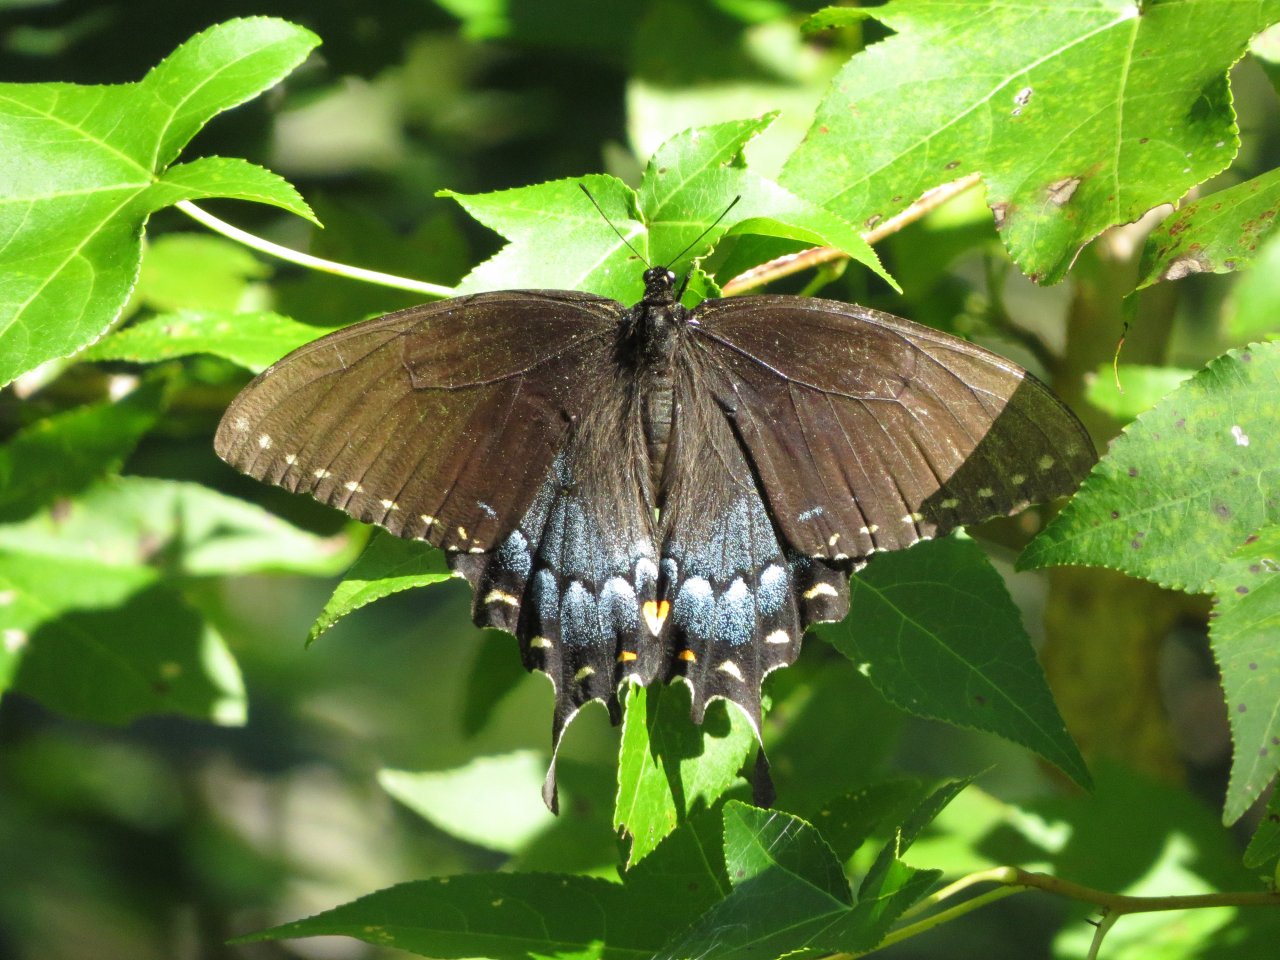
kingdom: Animalia
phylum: Arthropoda
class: Insecta
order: Lepidoptera
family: Papilionidae
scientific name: Papilionidae
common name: Swallowtails and Parnassians
